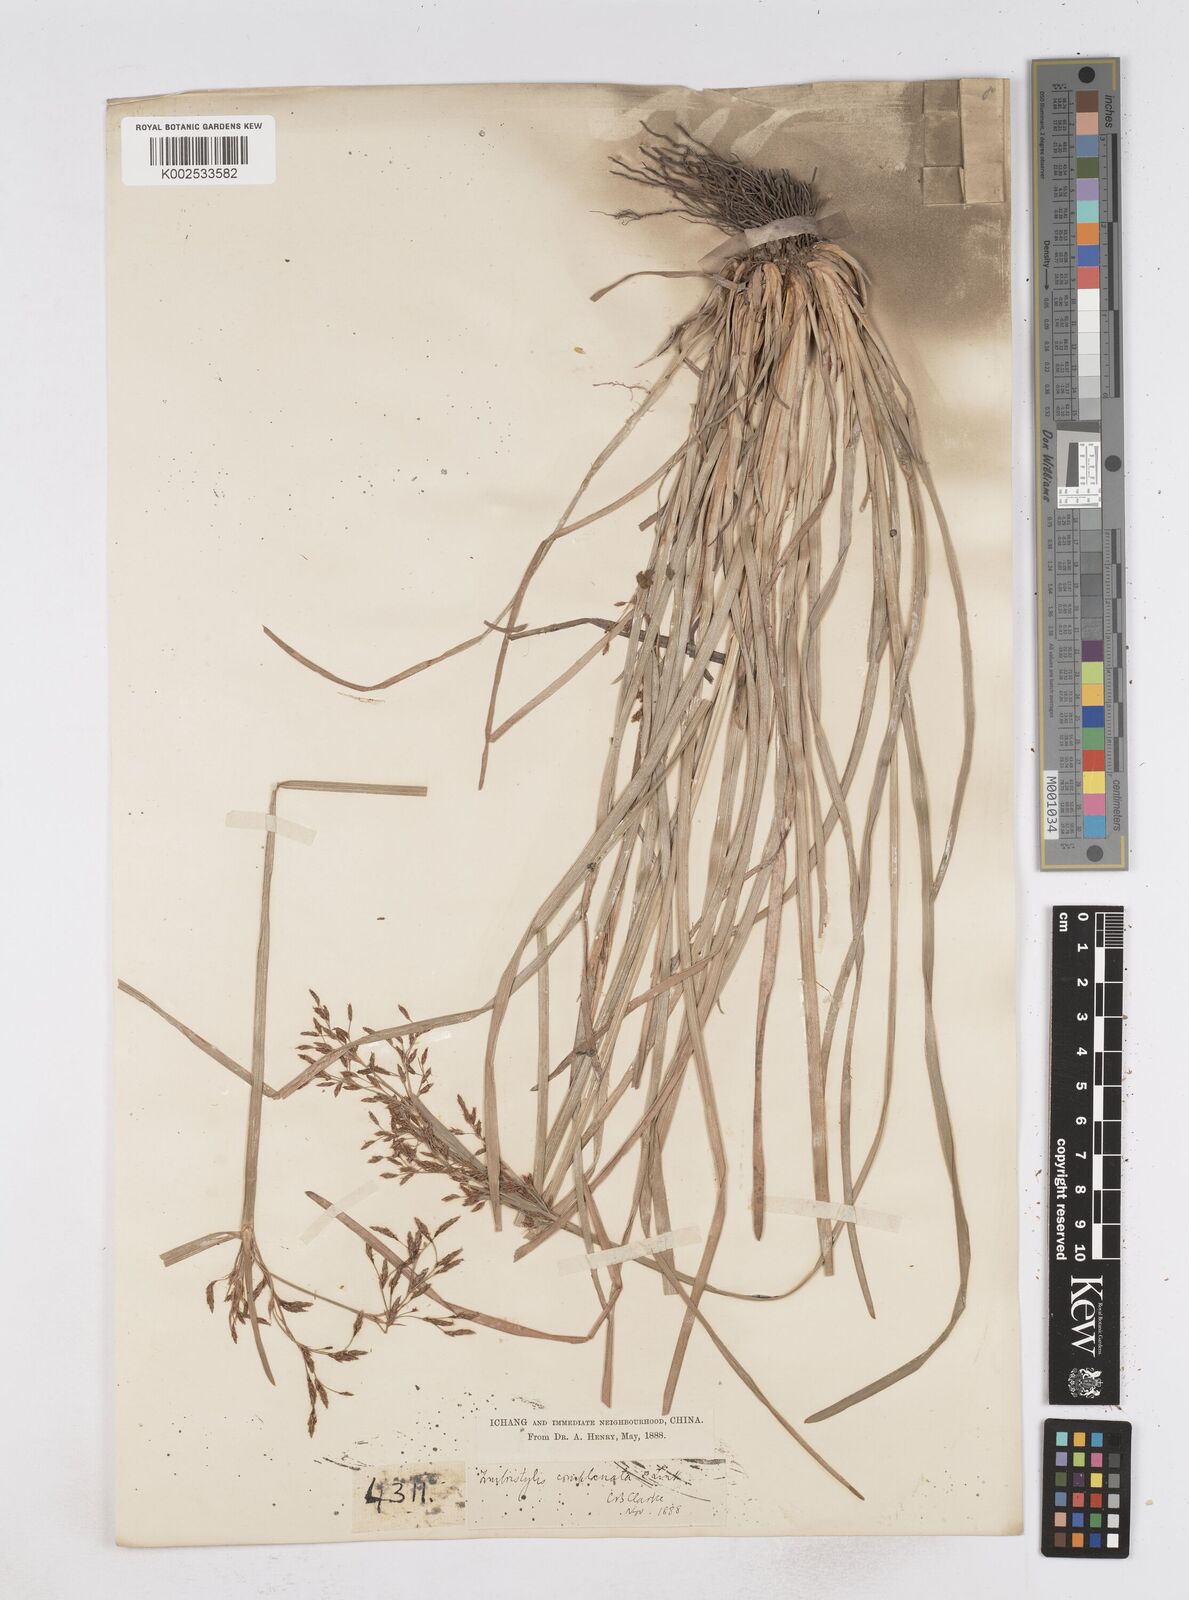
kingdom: Plantae
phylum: Tracheophyta
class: Liliopsida
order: Poales
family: Cyperaceae
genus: Fimbristylis
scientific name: Fimbristylis thomsonii
